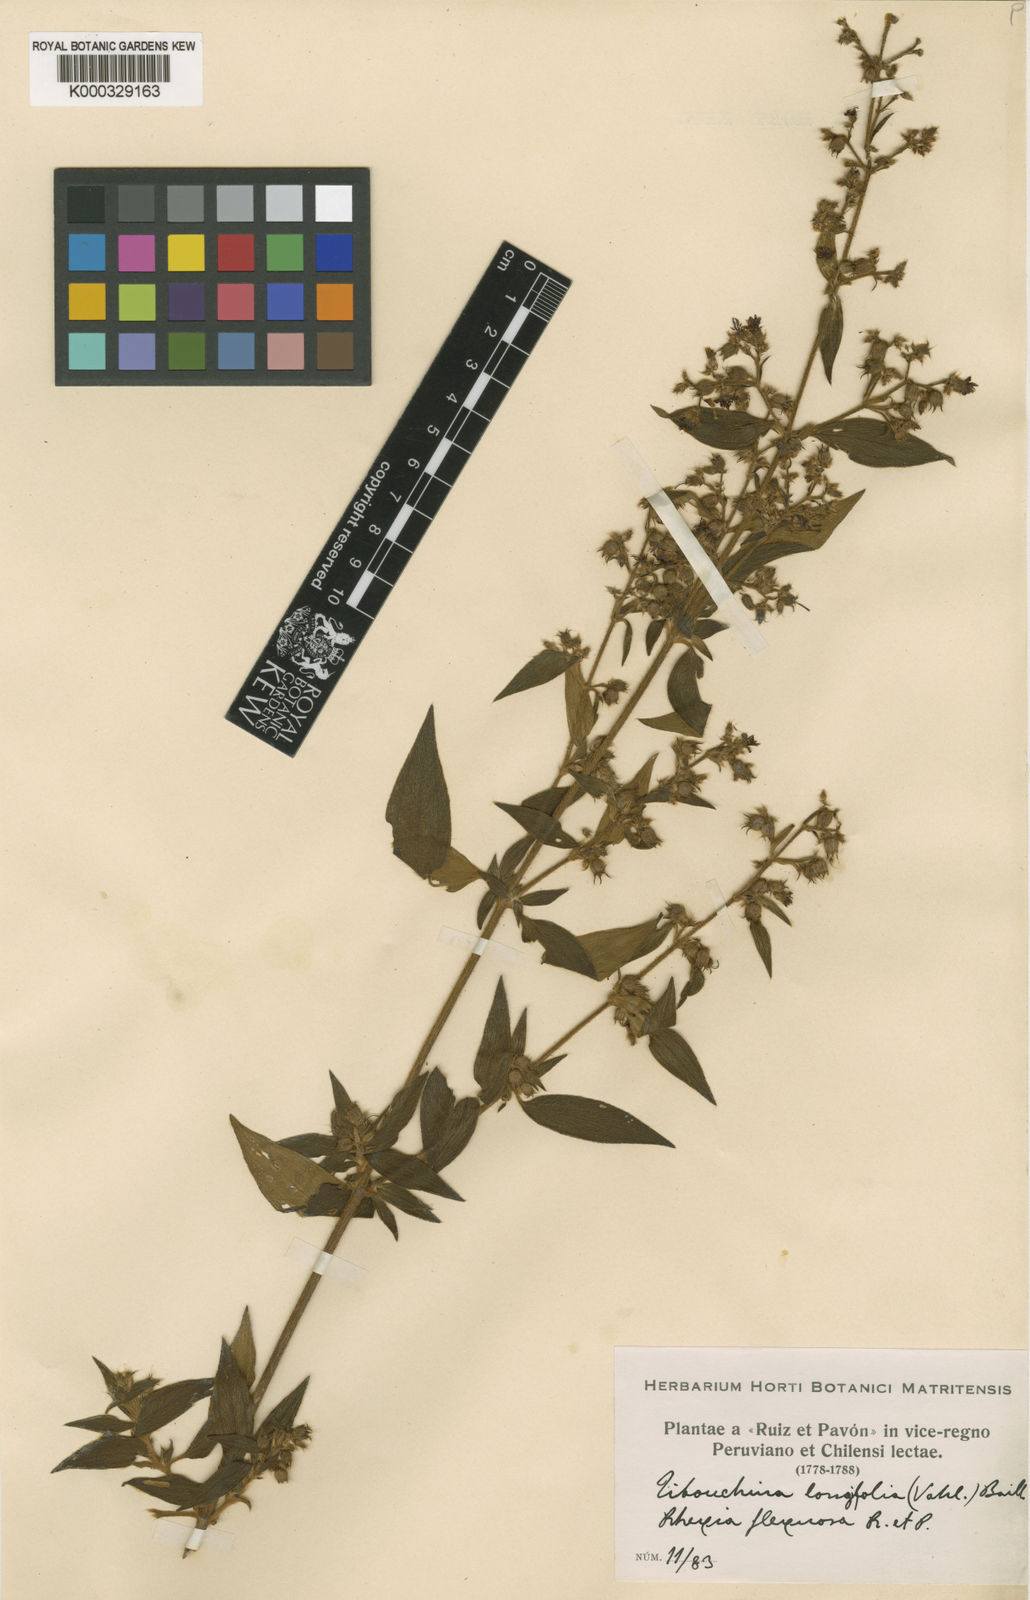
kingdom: Plantae
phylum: Tracheophyta
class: Magnoliopsida
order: Myrtales
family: Melastomataceae
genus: Chaetogastra
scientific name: Chaetogastra longifolia
